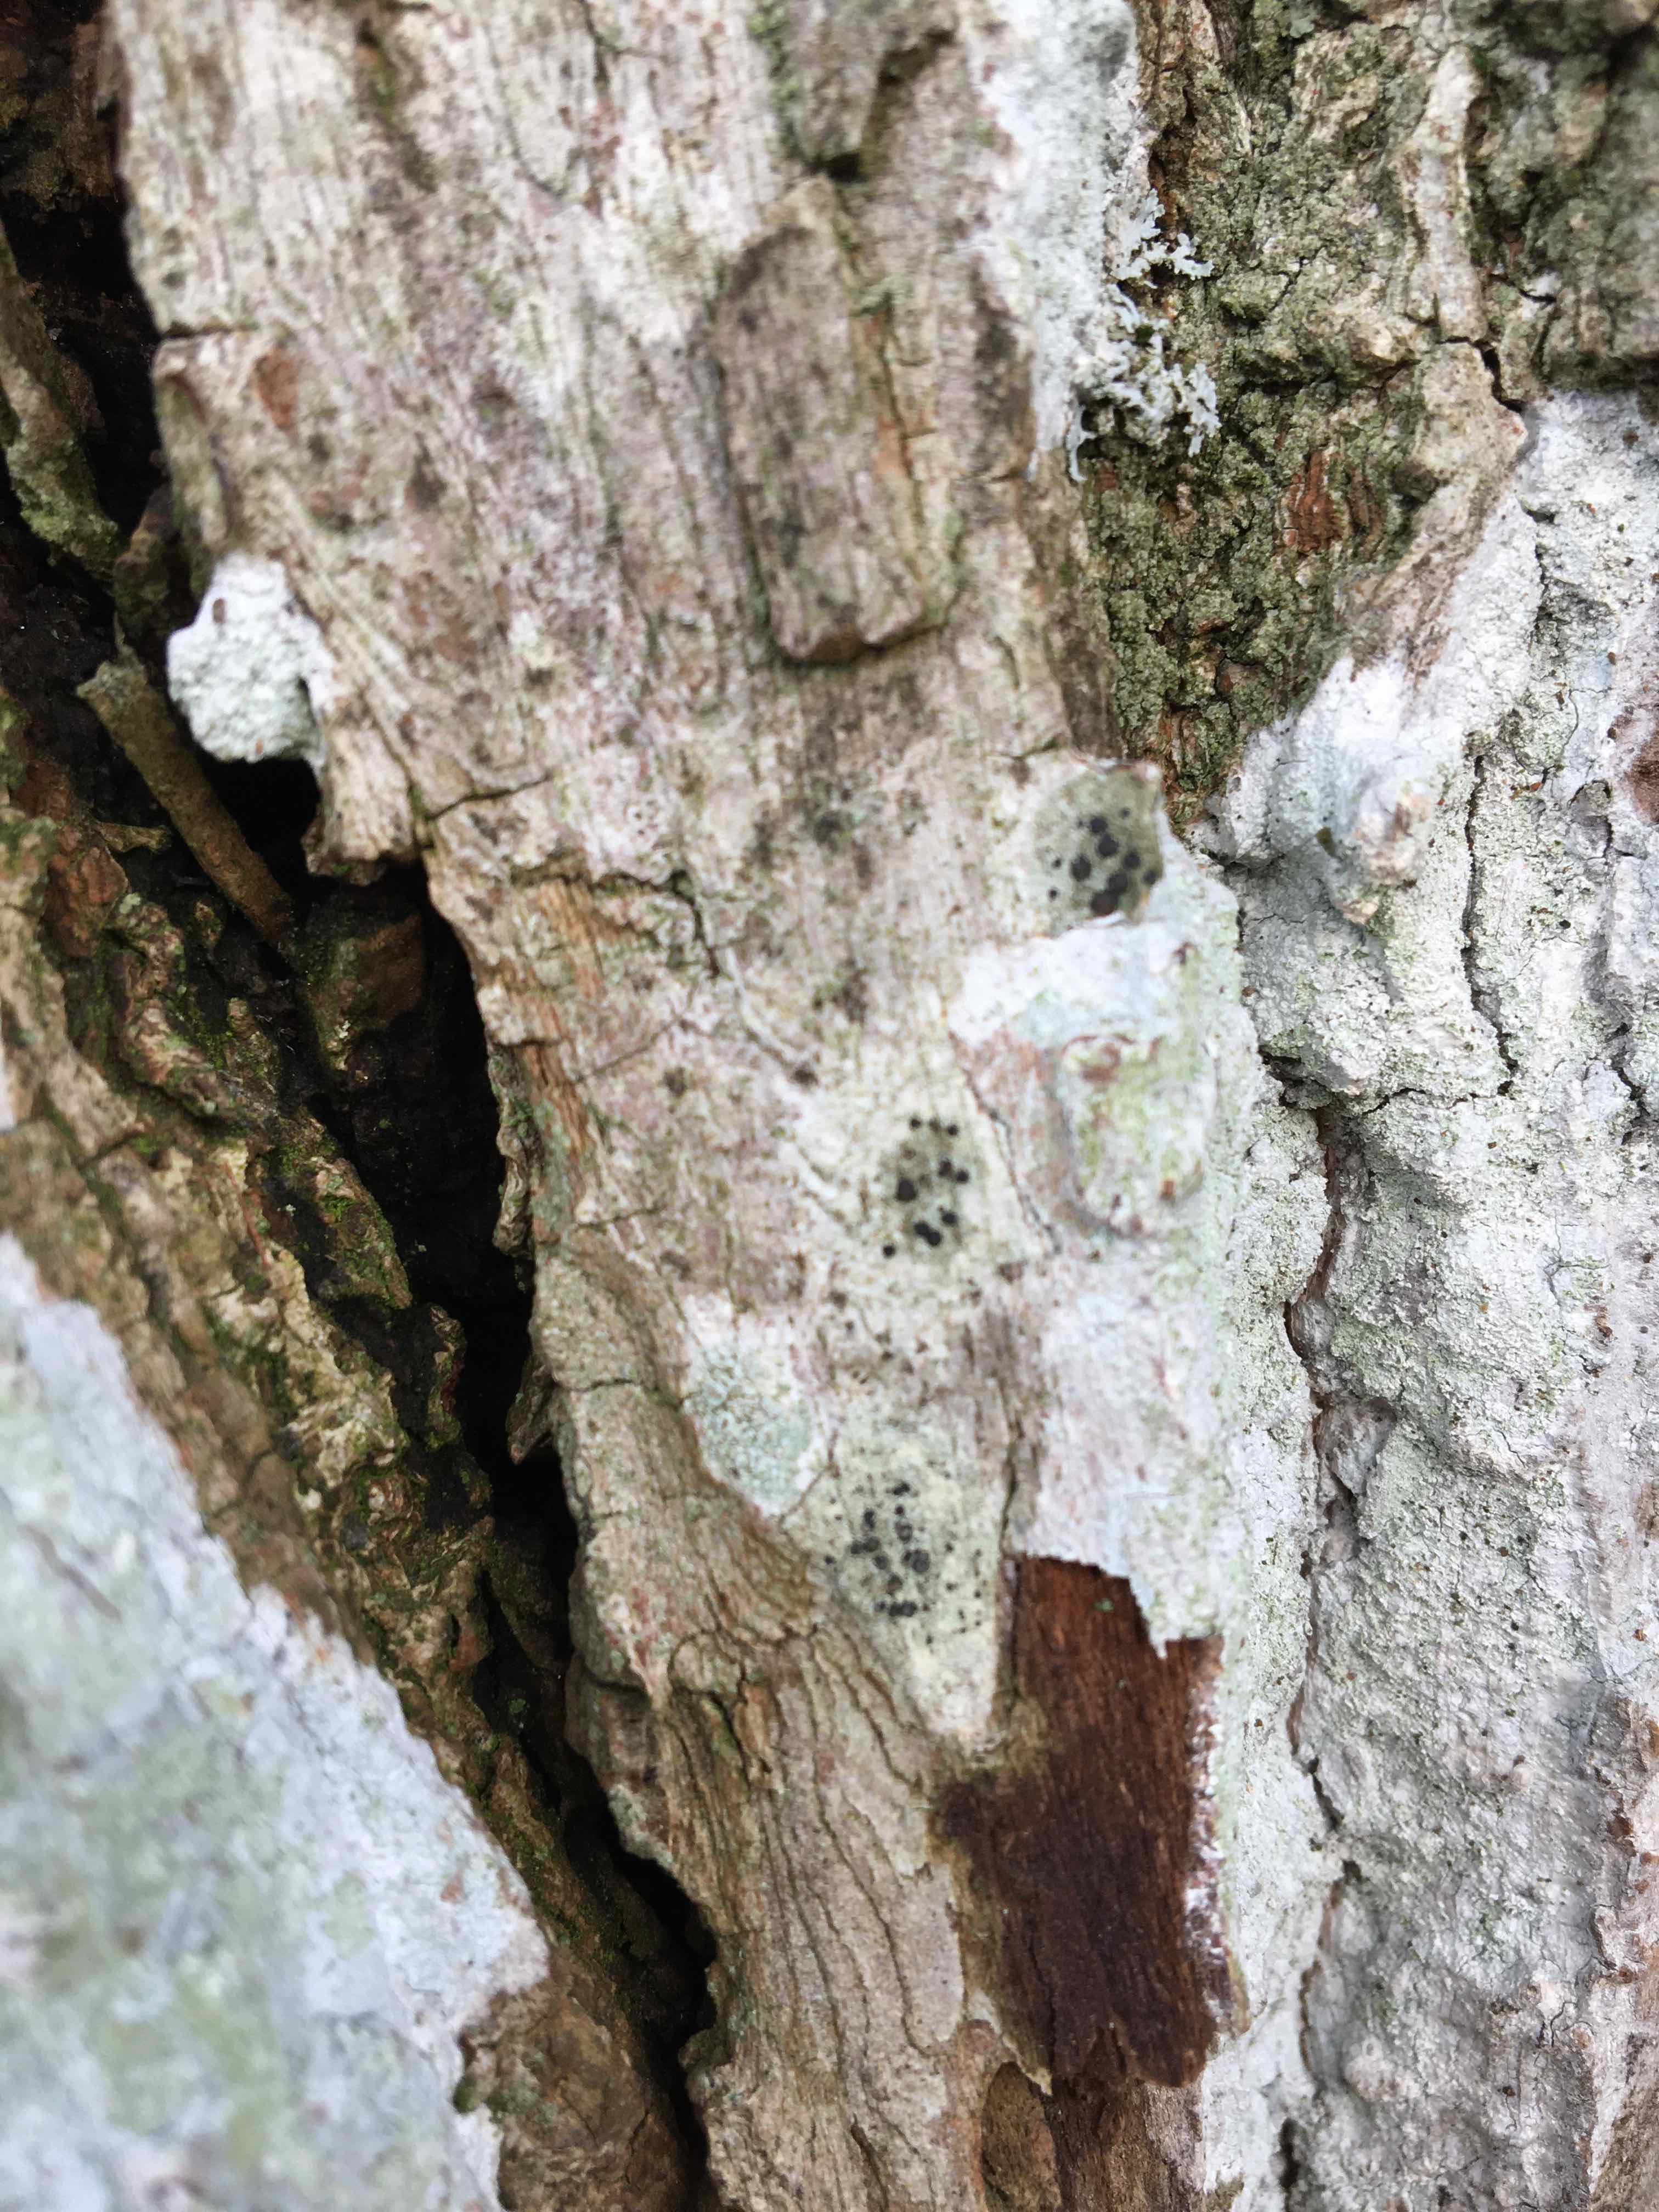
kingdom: Plantae
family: Lecanoromycetidae
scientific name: Lecanoromycetidae
